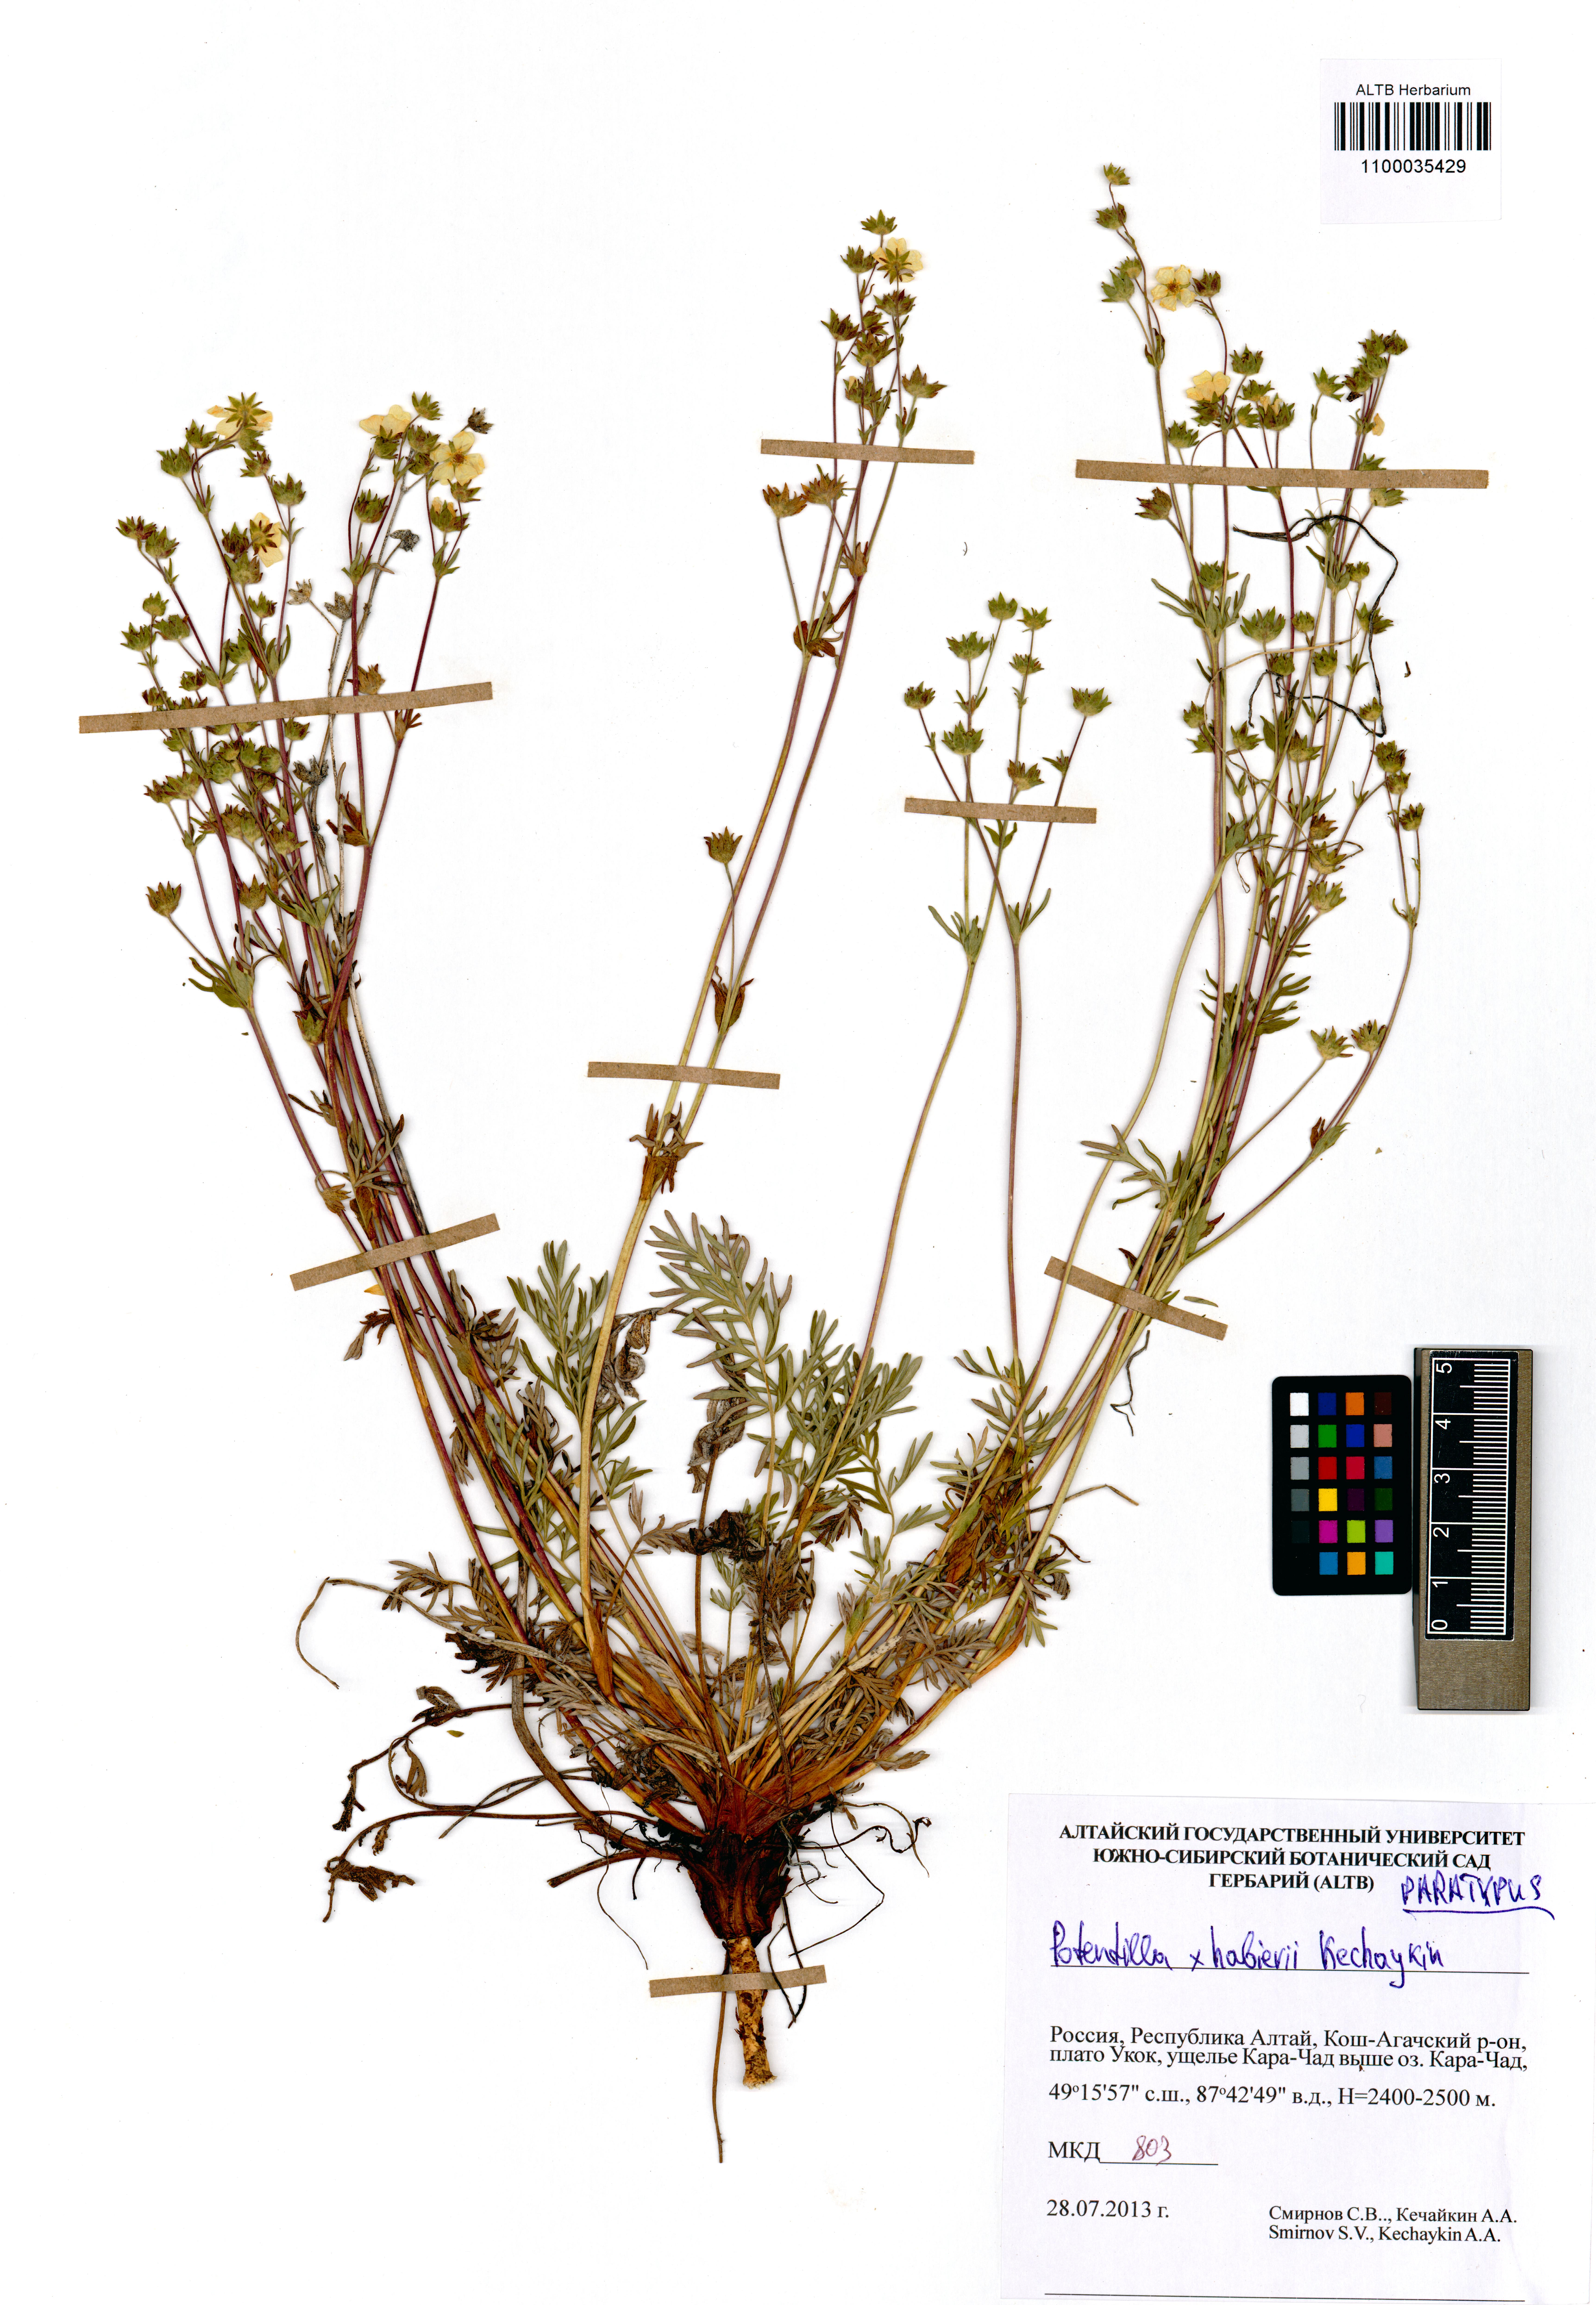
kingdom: Plantae
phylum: Tracheophyta
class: Magnoliopsida
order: Rosales
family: Rosaceae
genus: Potentilla
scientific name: Potentilla habievii
